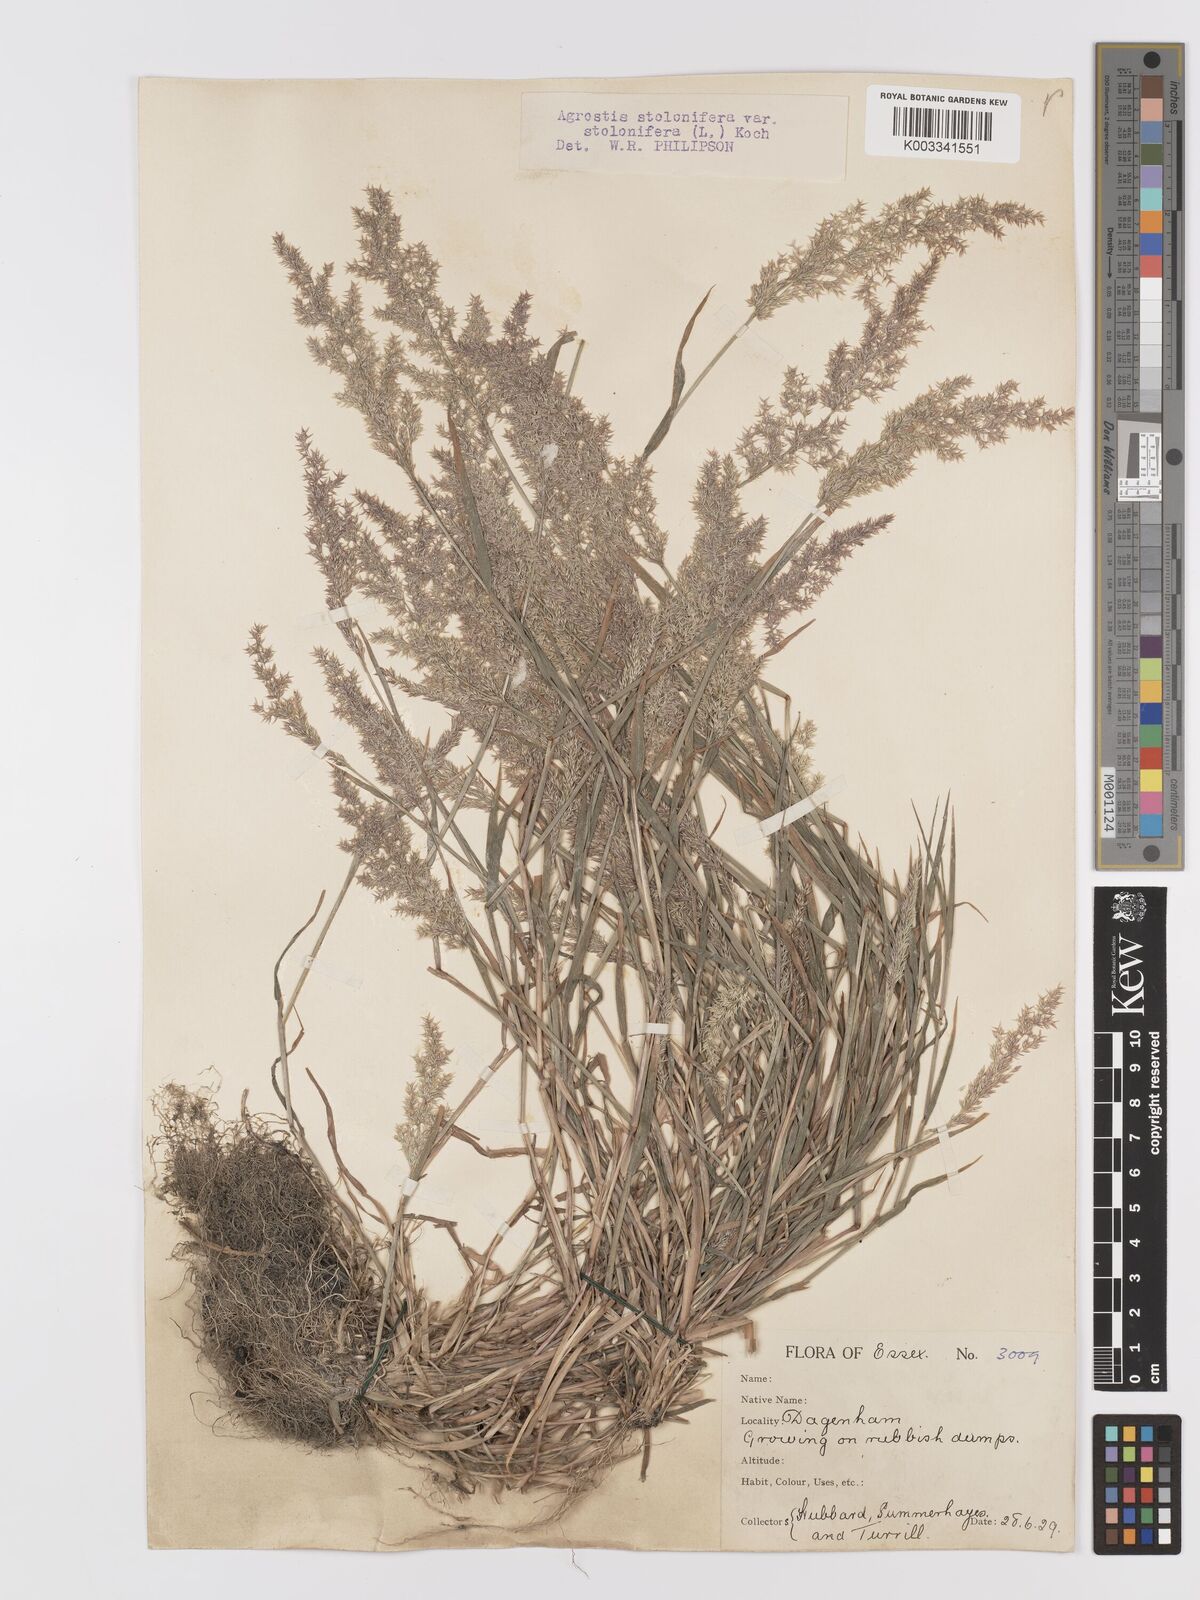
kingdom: Plantae
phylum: Tracheophyta
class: Liliopsida
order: Poales
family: Poaceae
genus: Agrostis
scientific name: Agrostis stolonifera
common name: Creeping bentgrass
